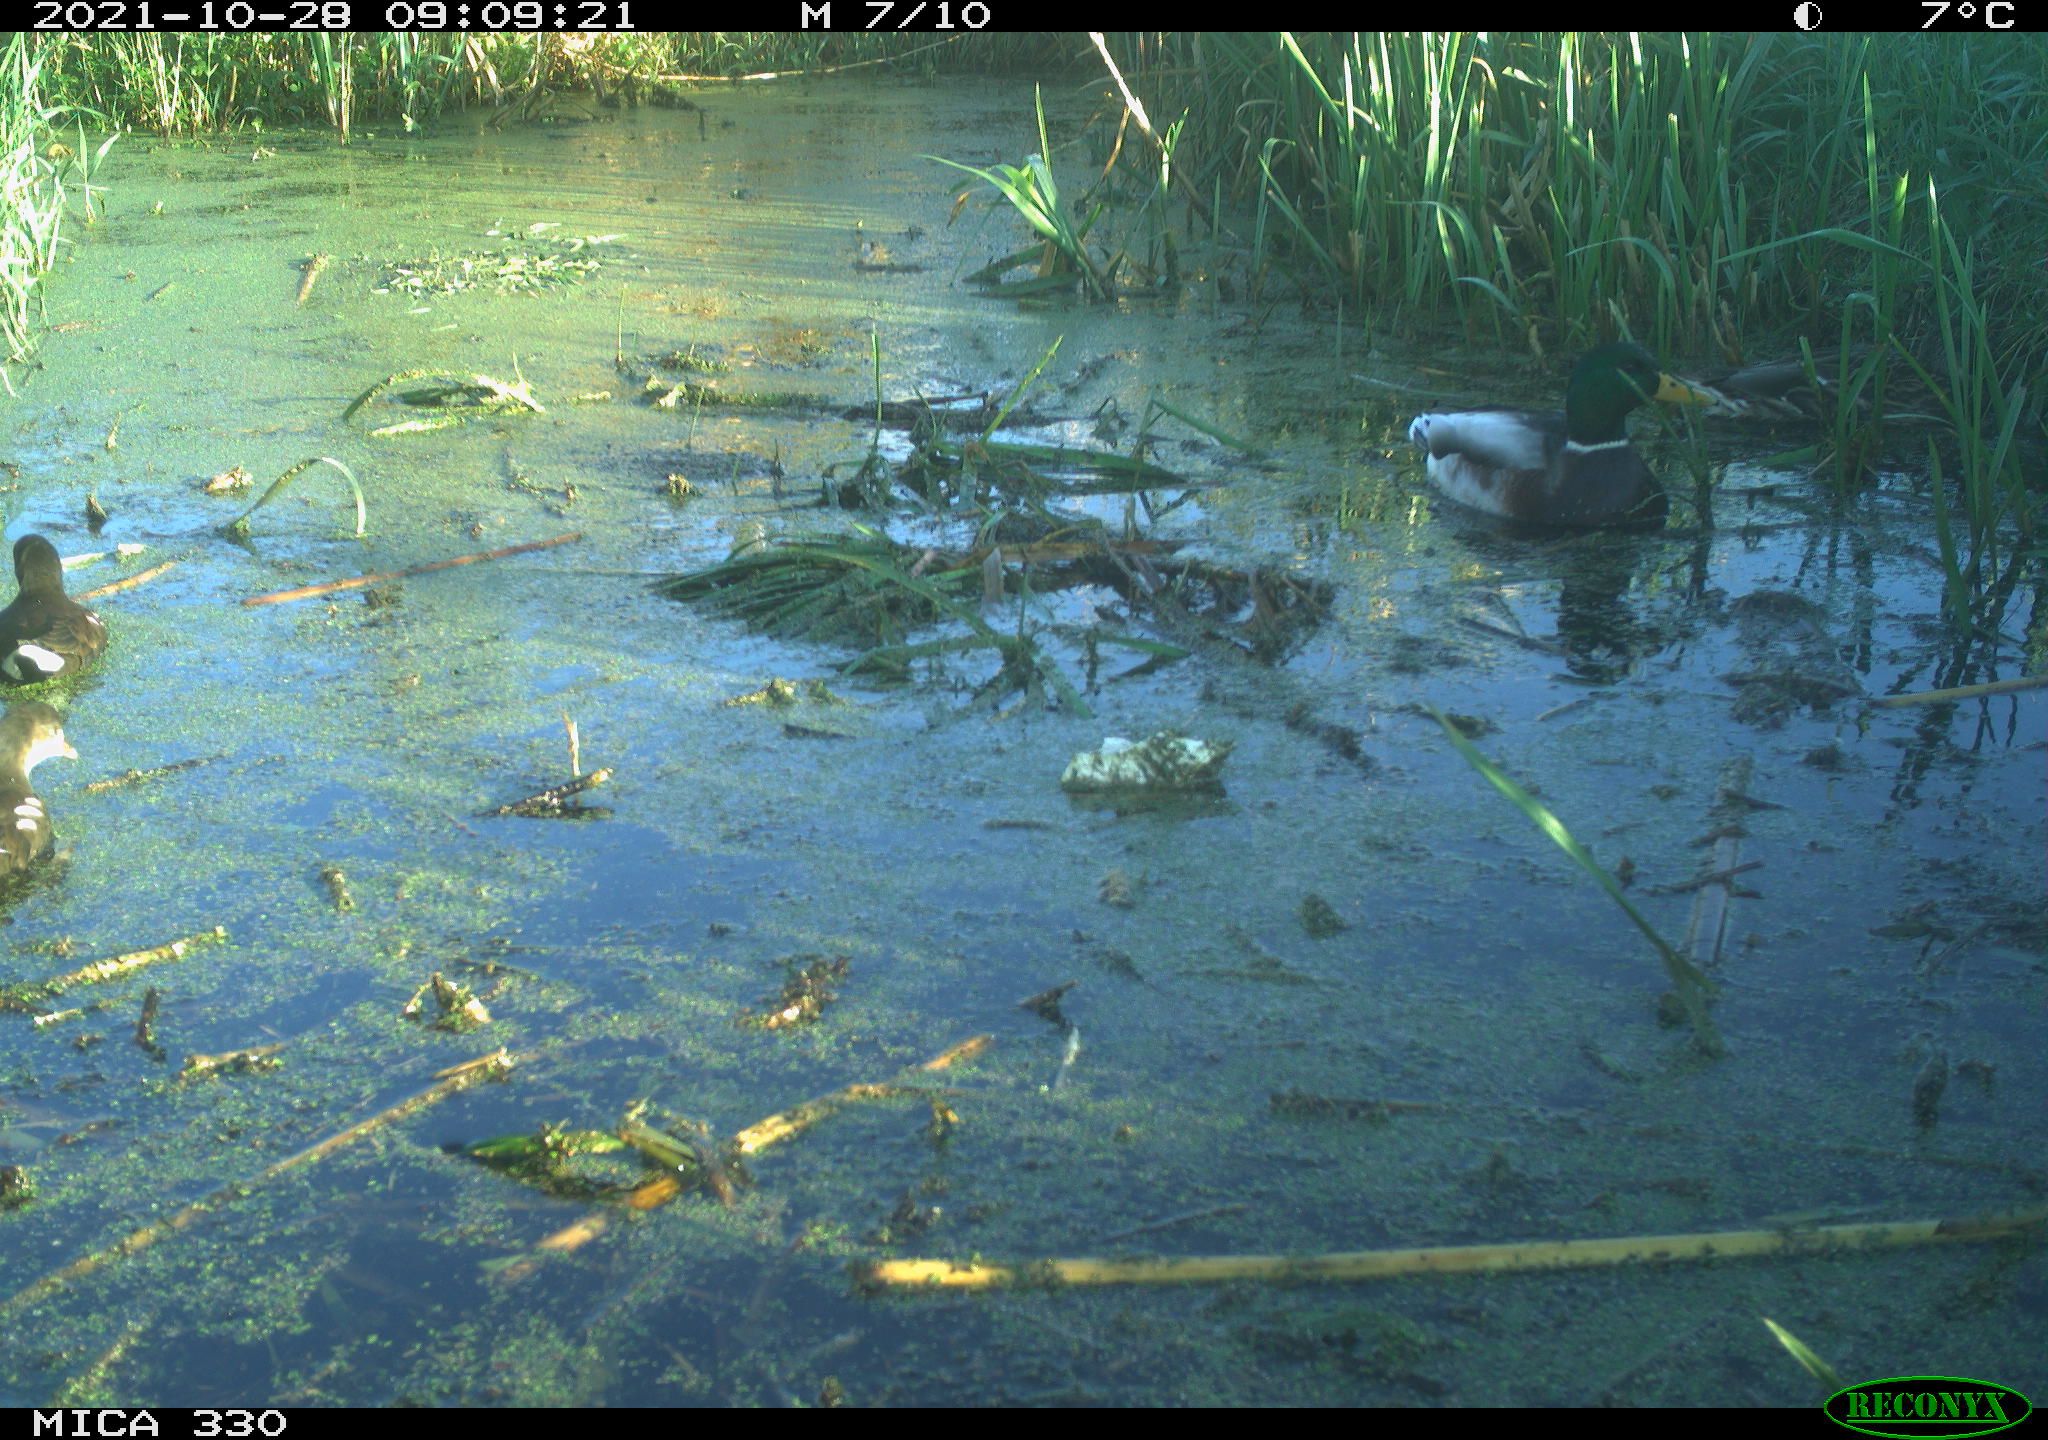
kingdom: Animalia
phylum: Chordata
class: Aves
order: Gruiformes
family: Rallidae
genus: Gallinula
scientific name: Gallinula chloropus
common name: Common moorhen
